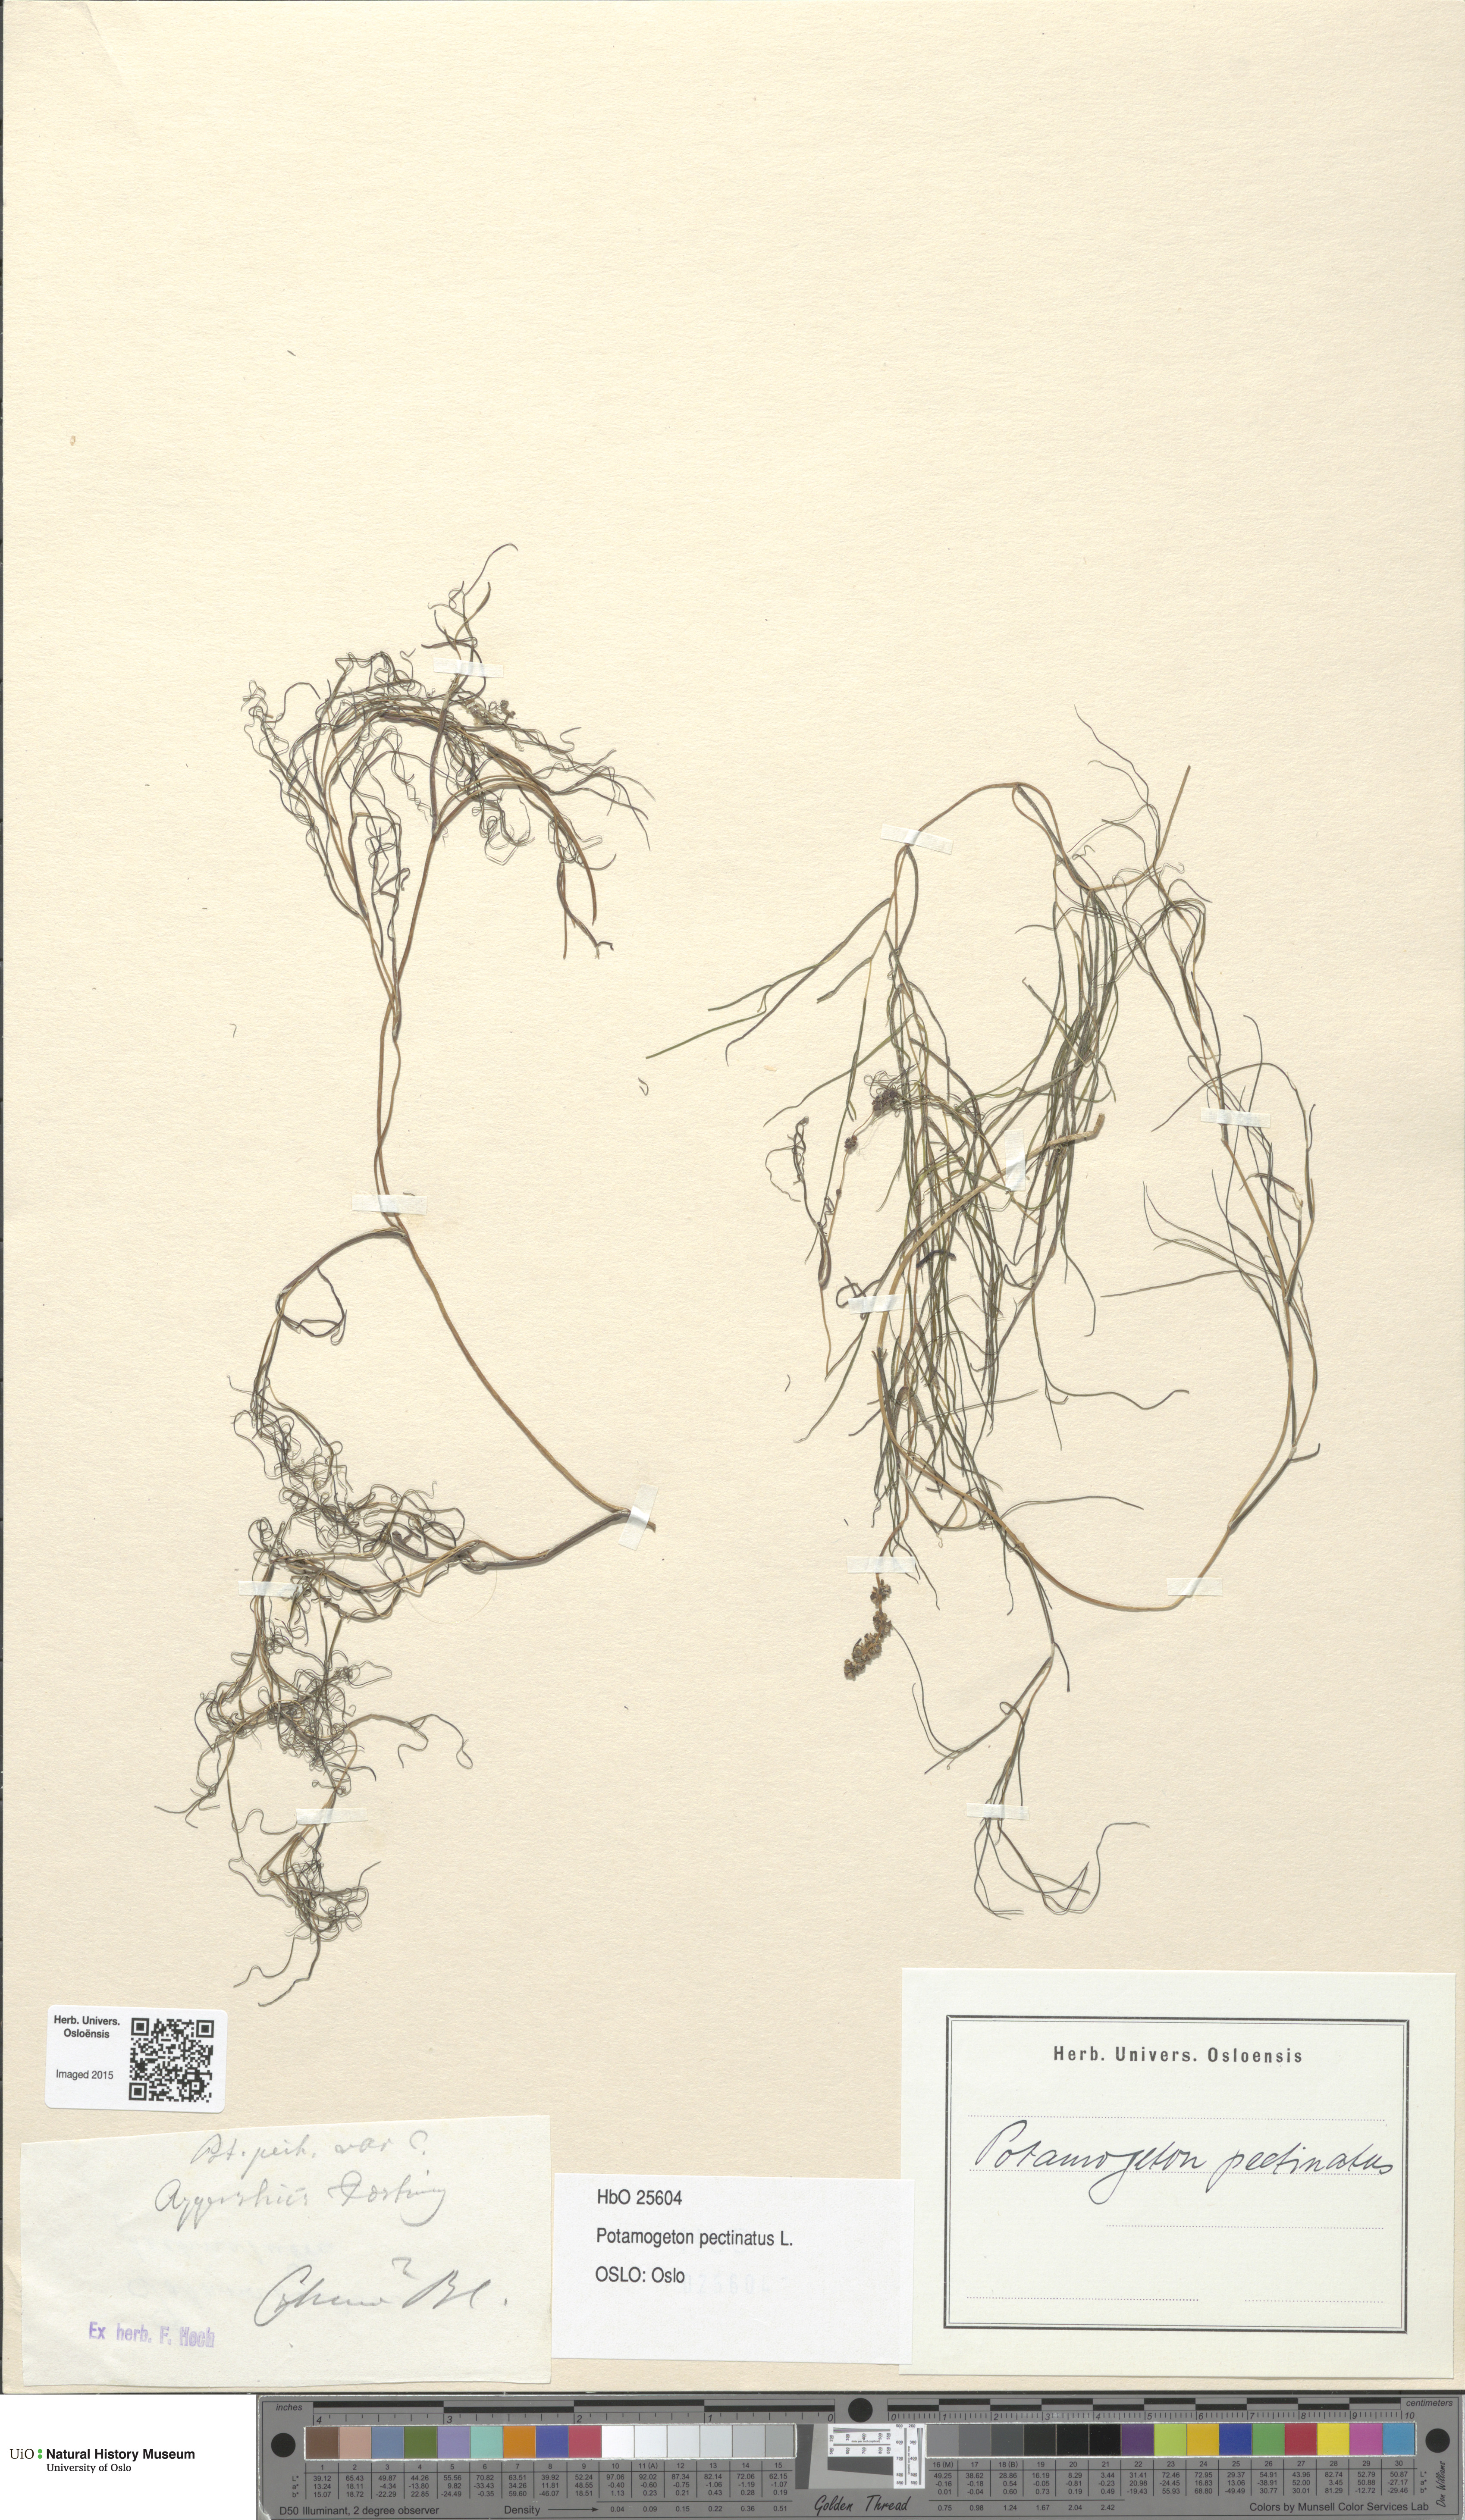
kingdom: Plantae
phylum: Tracheophyta
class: Liliopsida
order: Alismatales
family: Potamogetonaceae
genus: Stuckenia
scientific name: Stuckenia pectinata
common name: Sago pondweed
